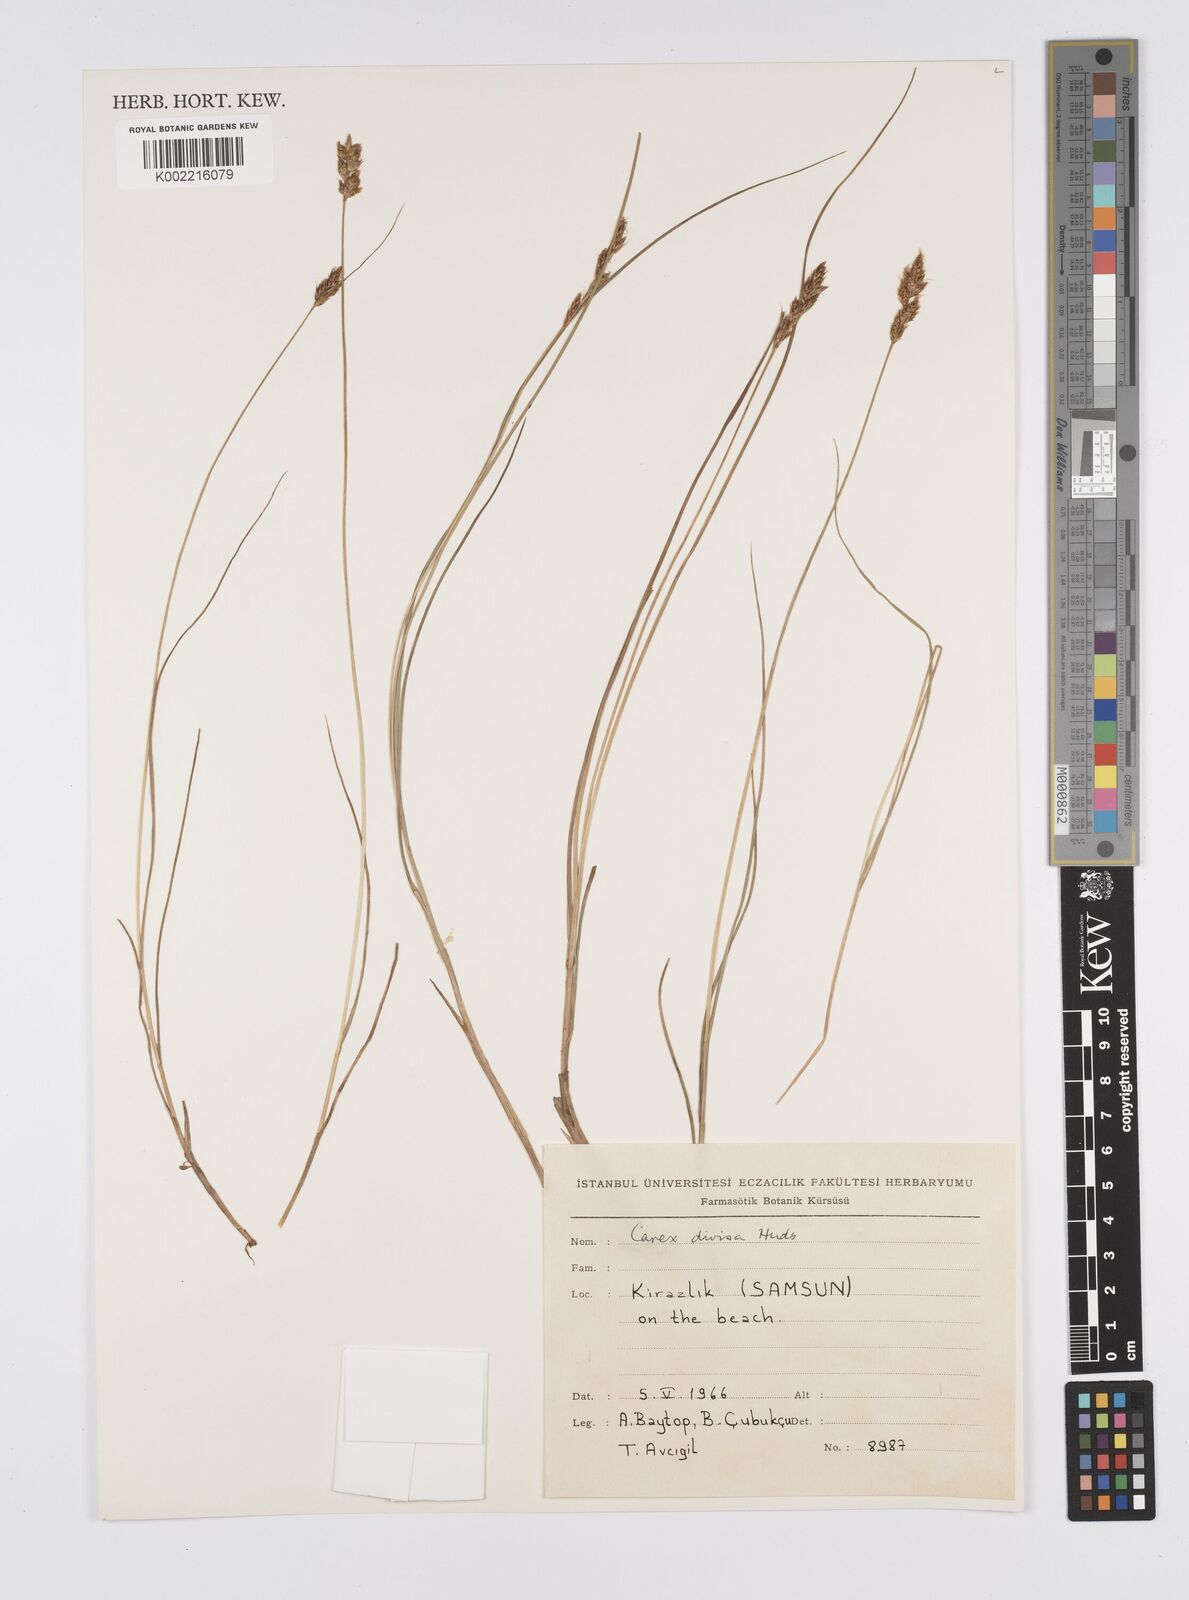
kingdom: Plantae
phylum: Tracheophyta
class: Liliopsida
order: Poales
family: Cyperaceae
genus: Carex
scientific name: Carex divisa
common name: Divided sedge
